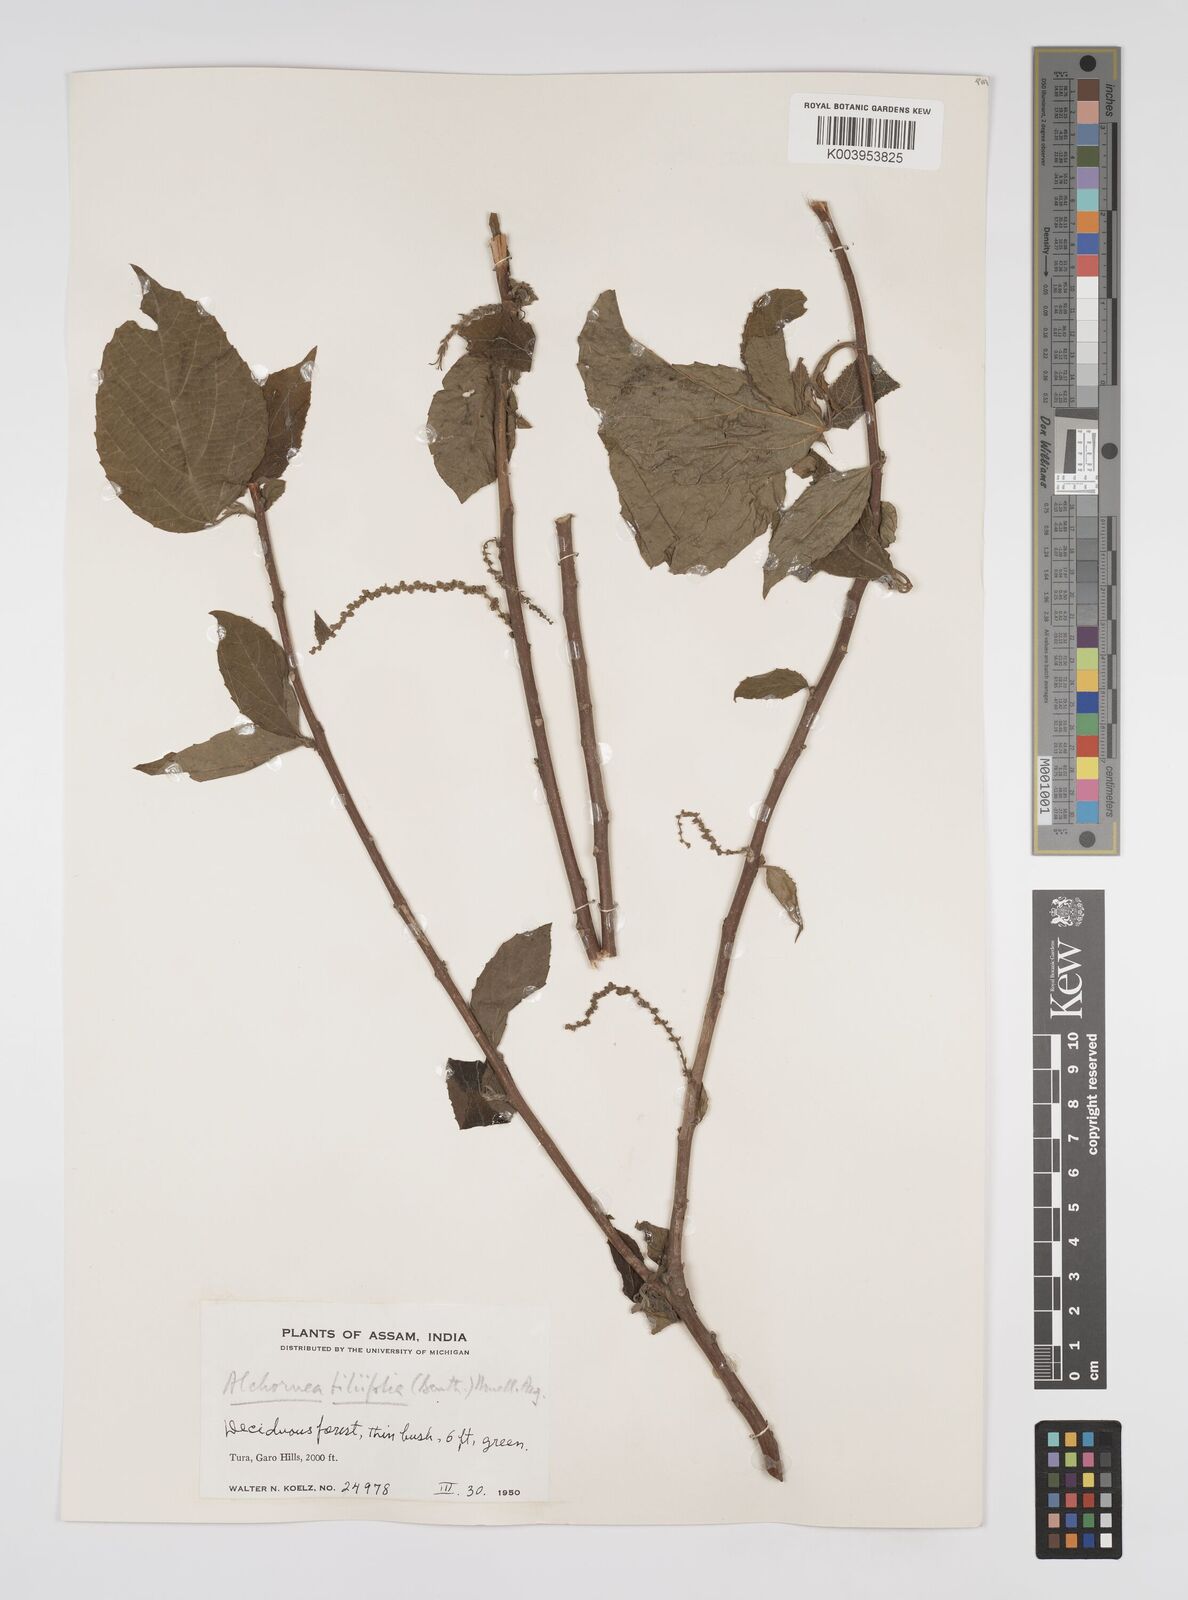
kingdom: Plantae
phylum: Tracheophyta
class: Magnoliopsida
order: Malpighiales
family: Euphorbiaceae
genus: Alchornea
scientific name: Alchornea tiliifolia
